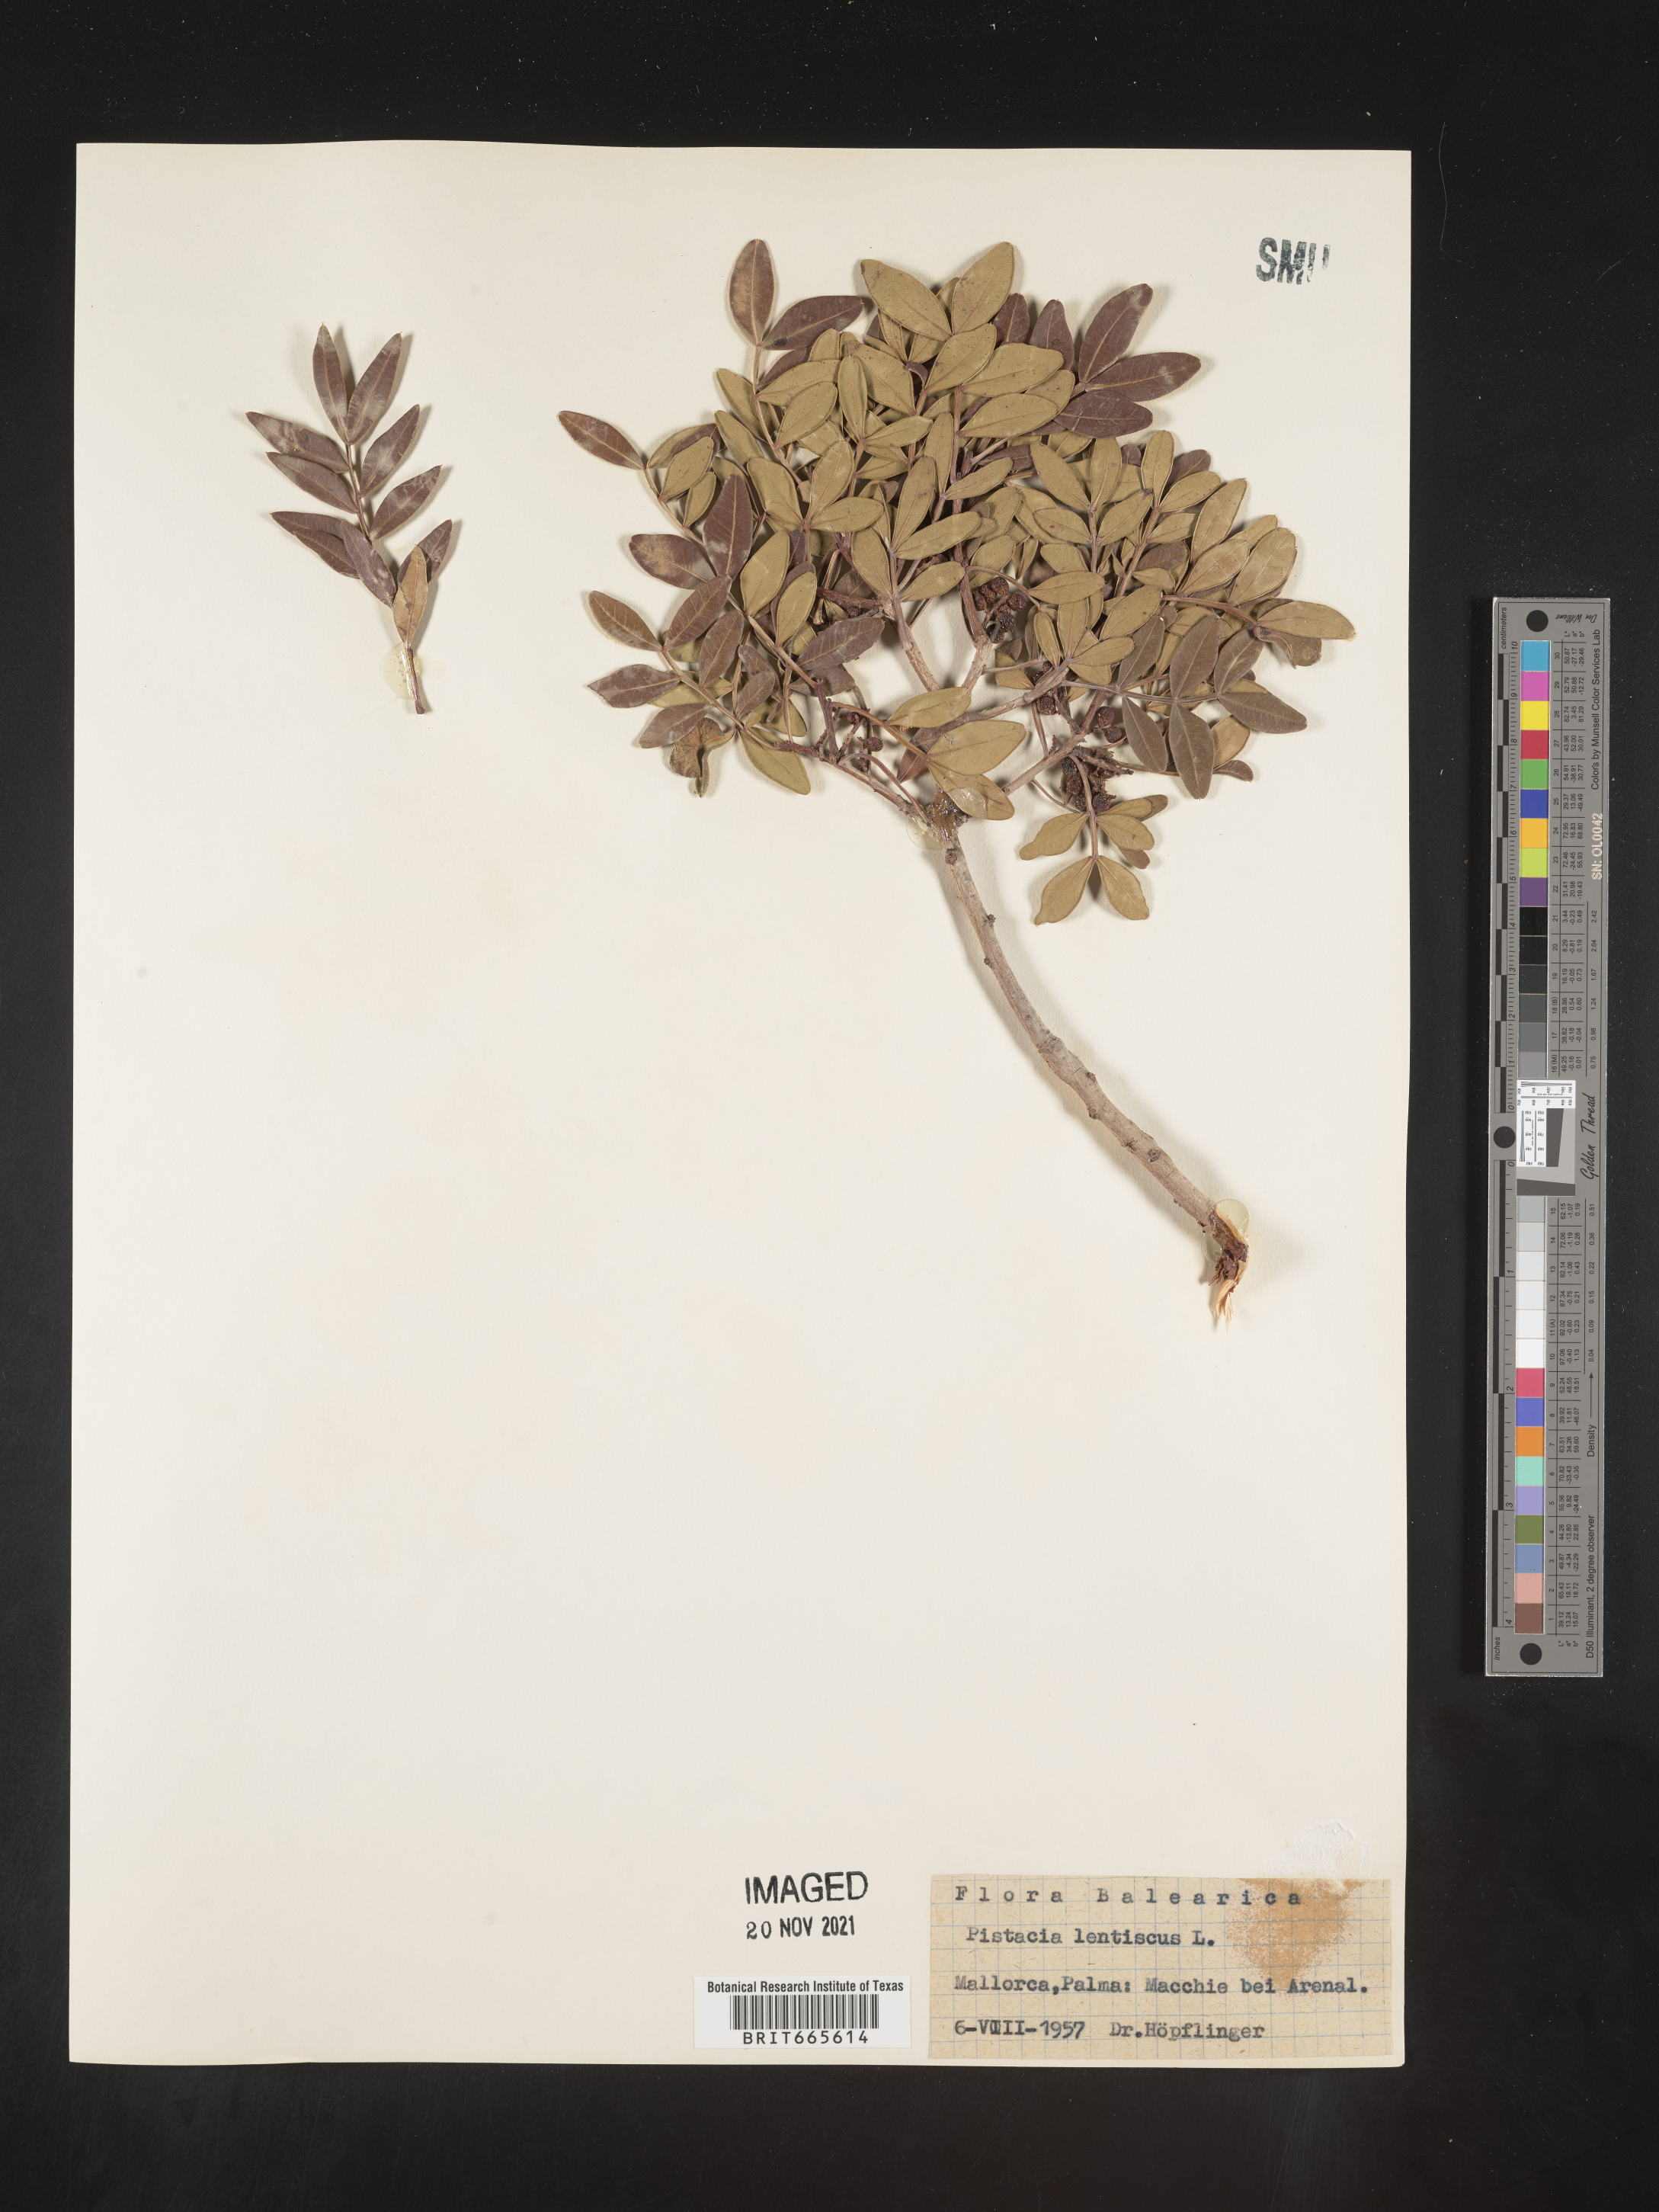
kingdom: Plantae
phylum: Tracheophyta
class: Magnoliopsida
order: Sapindales
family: Anacardiaceae
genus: Pistacia
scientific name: Pistacia
